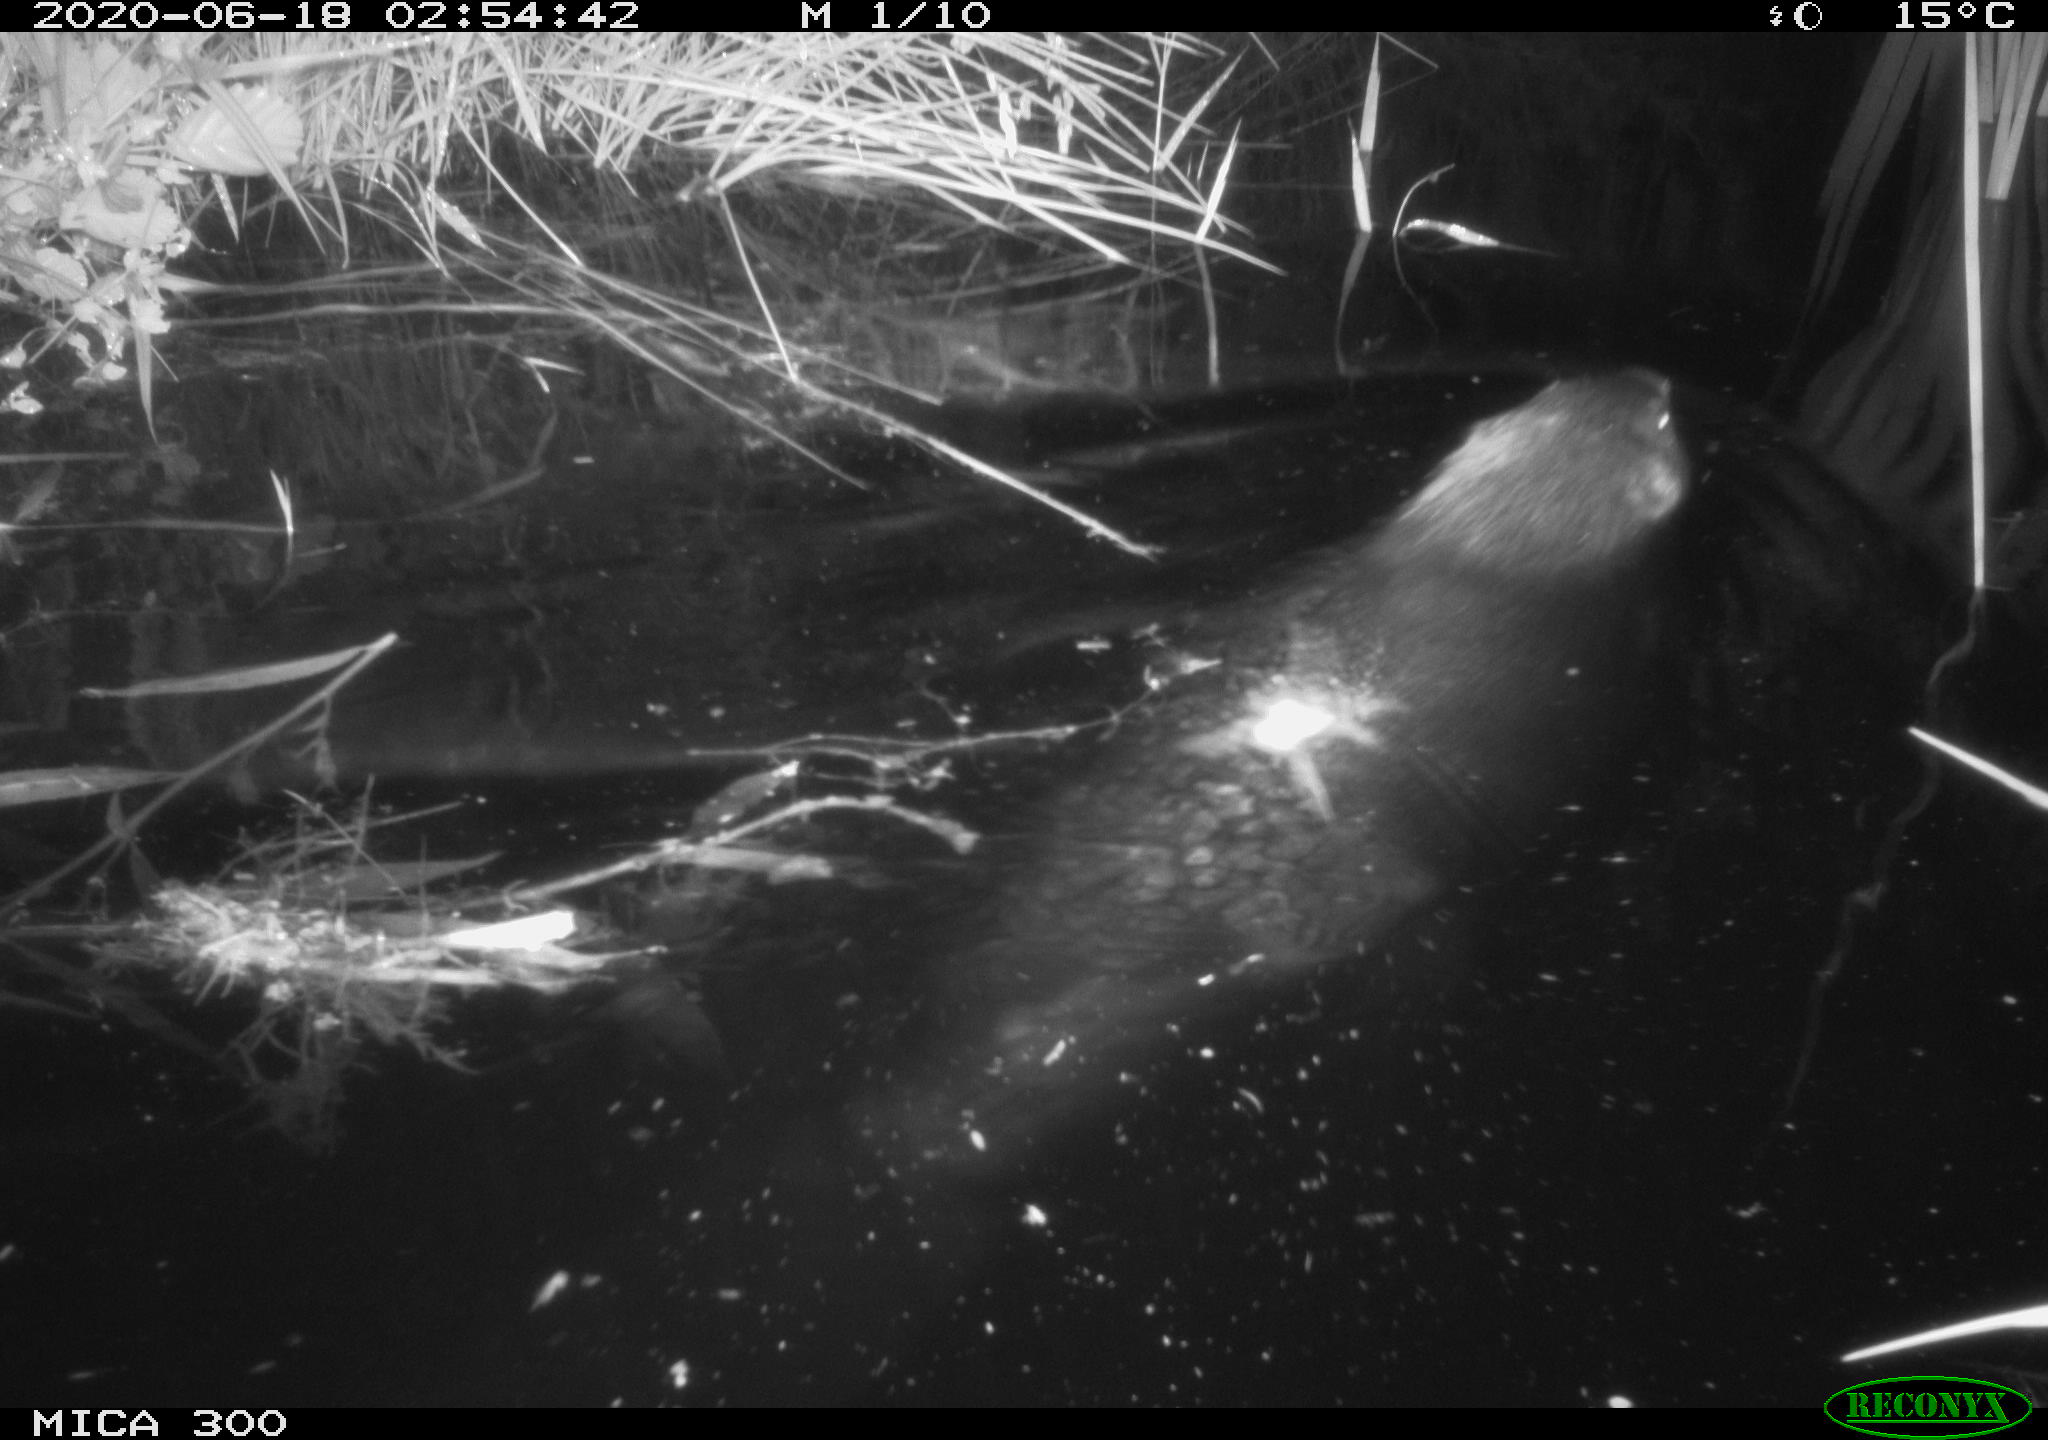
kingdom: Animalia
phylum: Chordata
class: Mammalia
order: Rodentia
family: Castoridae
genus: Castor
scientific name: Castor fiber
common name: Eurasian beaver
